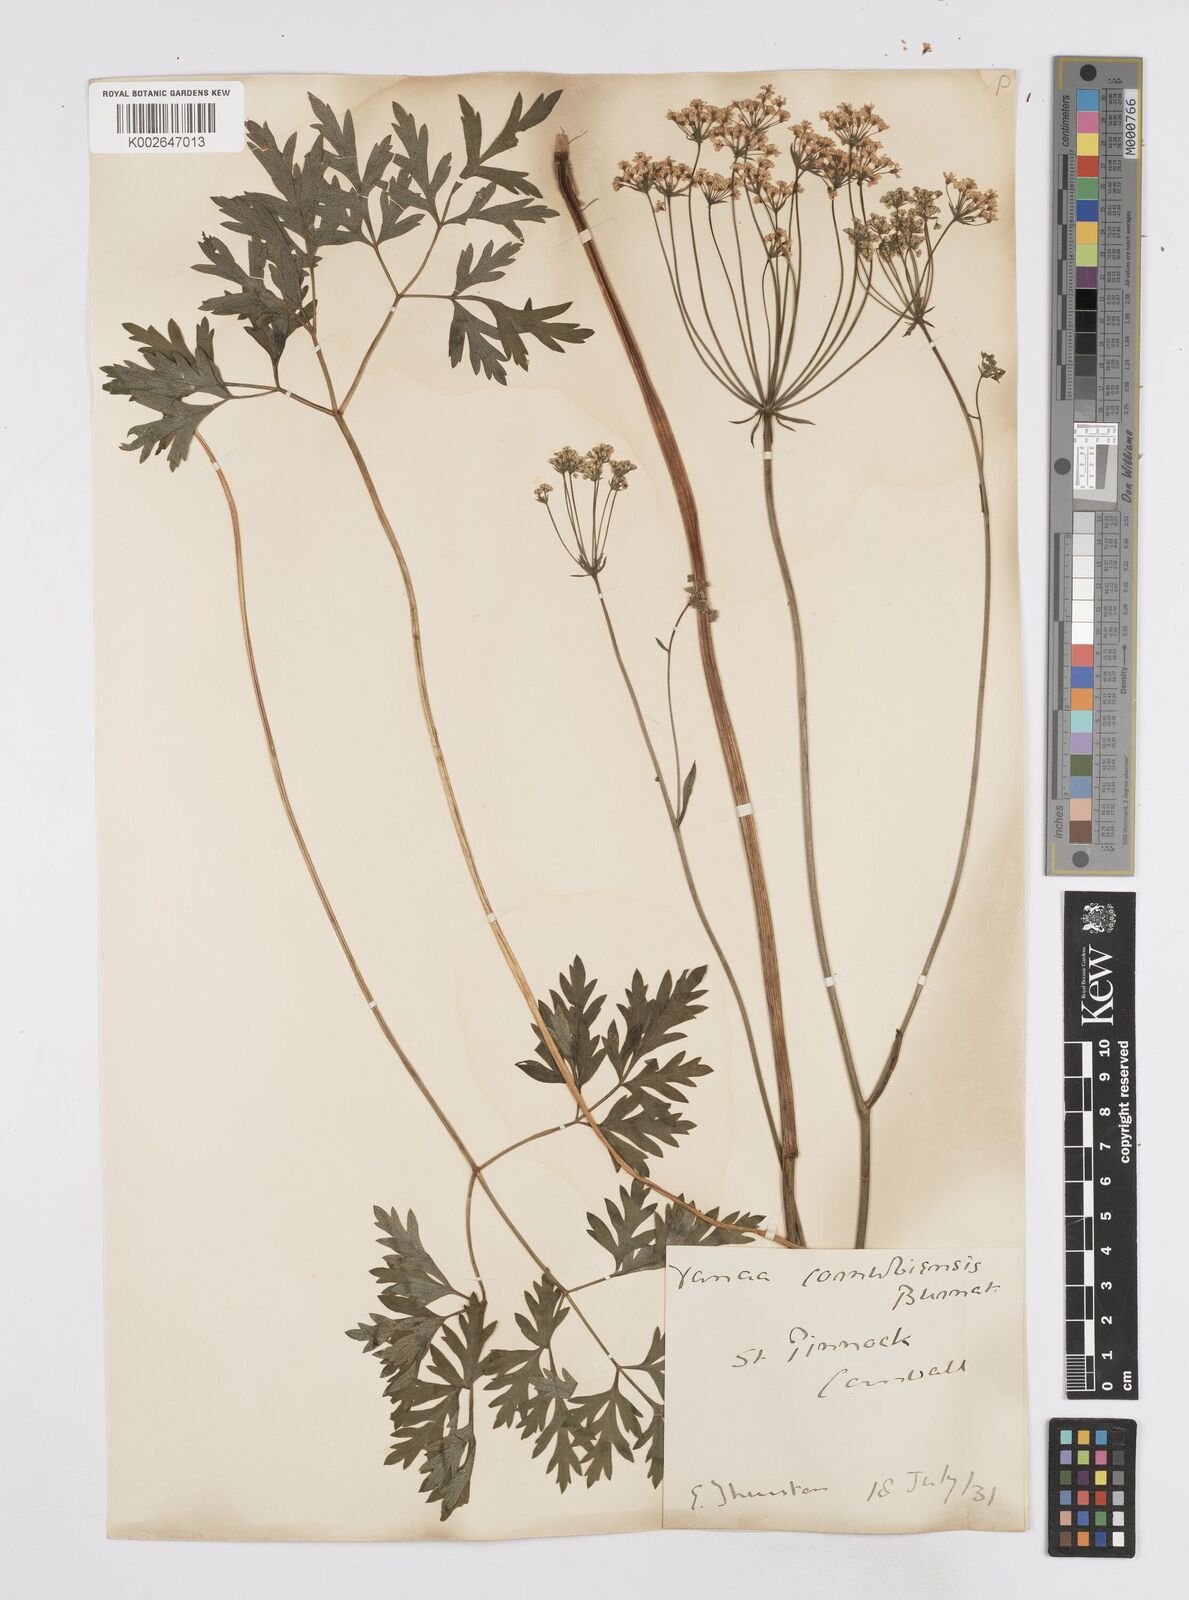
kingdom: Plantae
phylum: Tracheophyta
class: Magnoliopsida
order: Apiales
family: Apiaceae
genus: Physospermum
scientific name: Physospermum cornubiense
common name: Bladderseed
